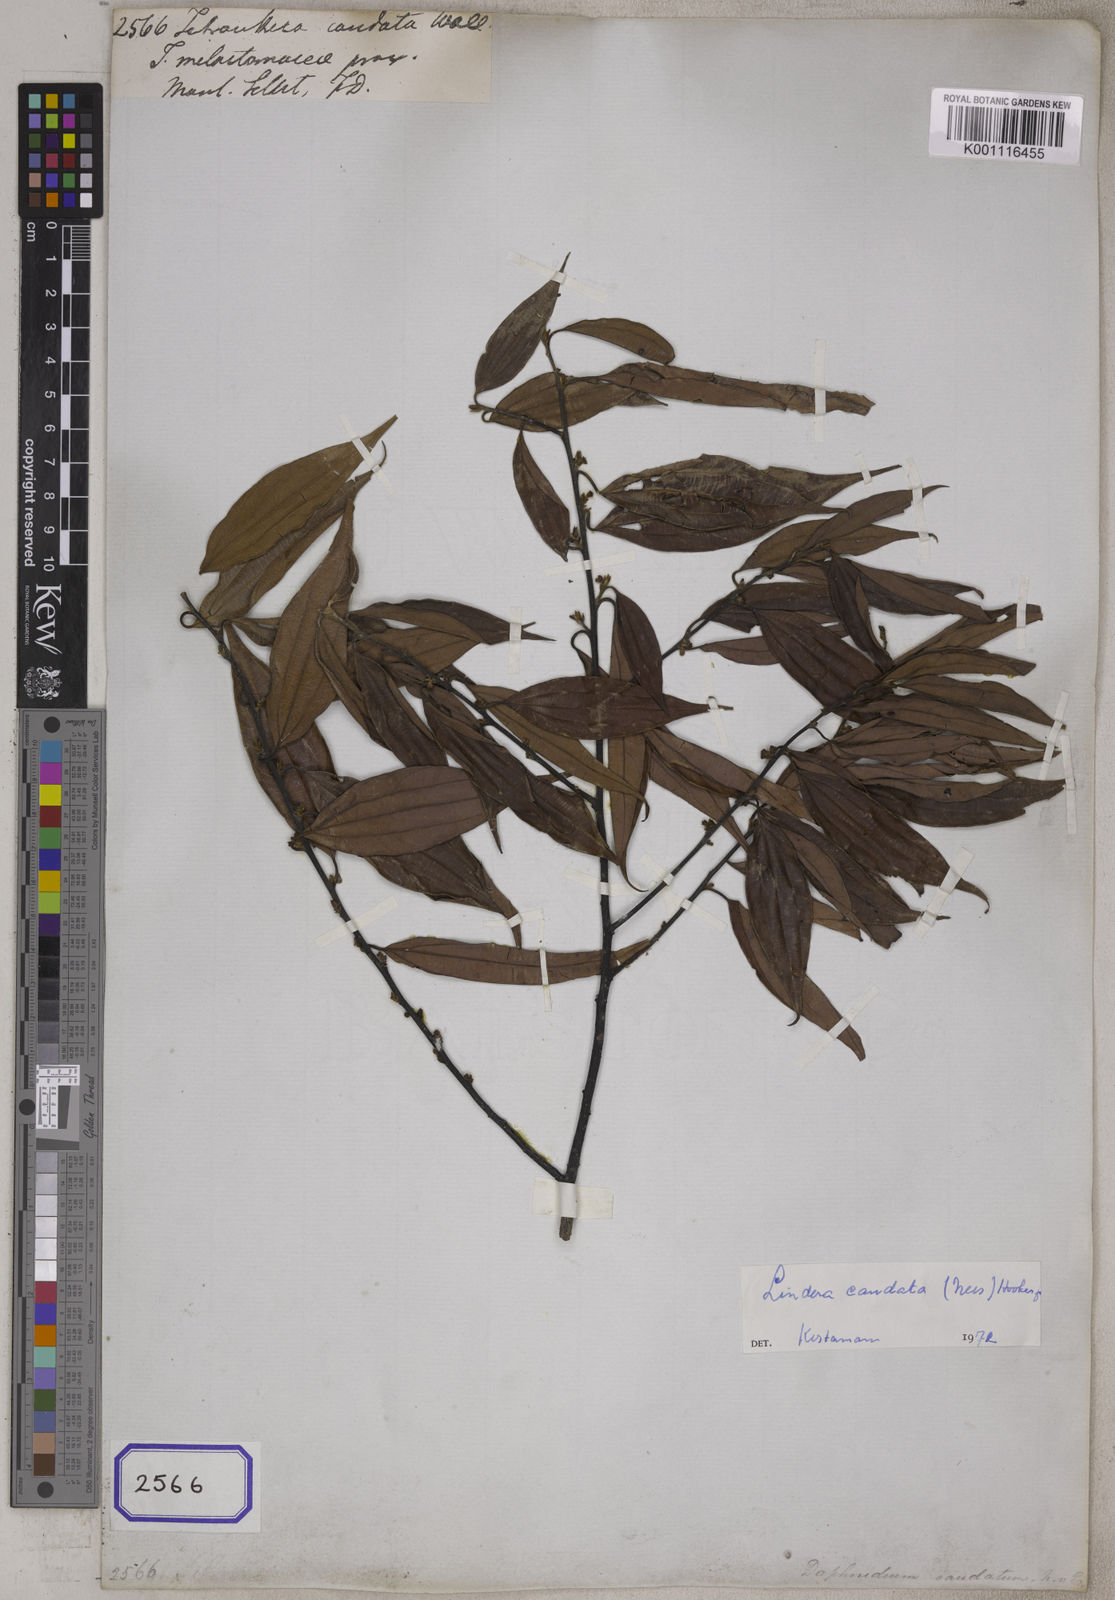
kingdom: Plantae
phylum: Tracheophyta
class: Magnoliopsida
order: Laurales
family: Lauraceae
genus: Lindera
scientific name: Lindera caudata
